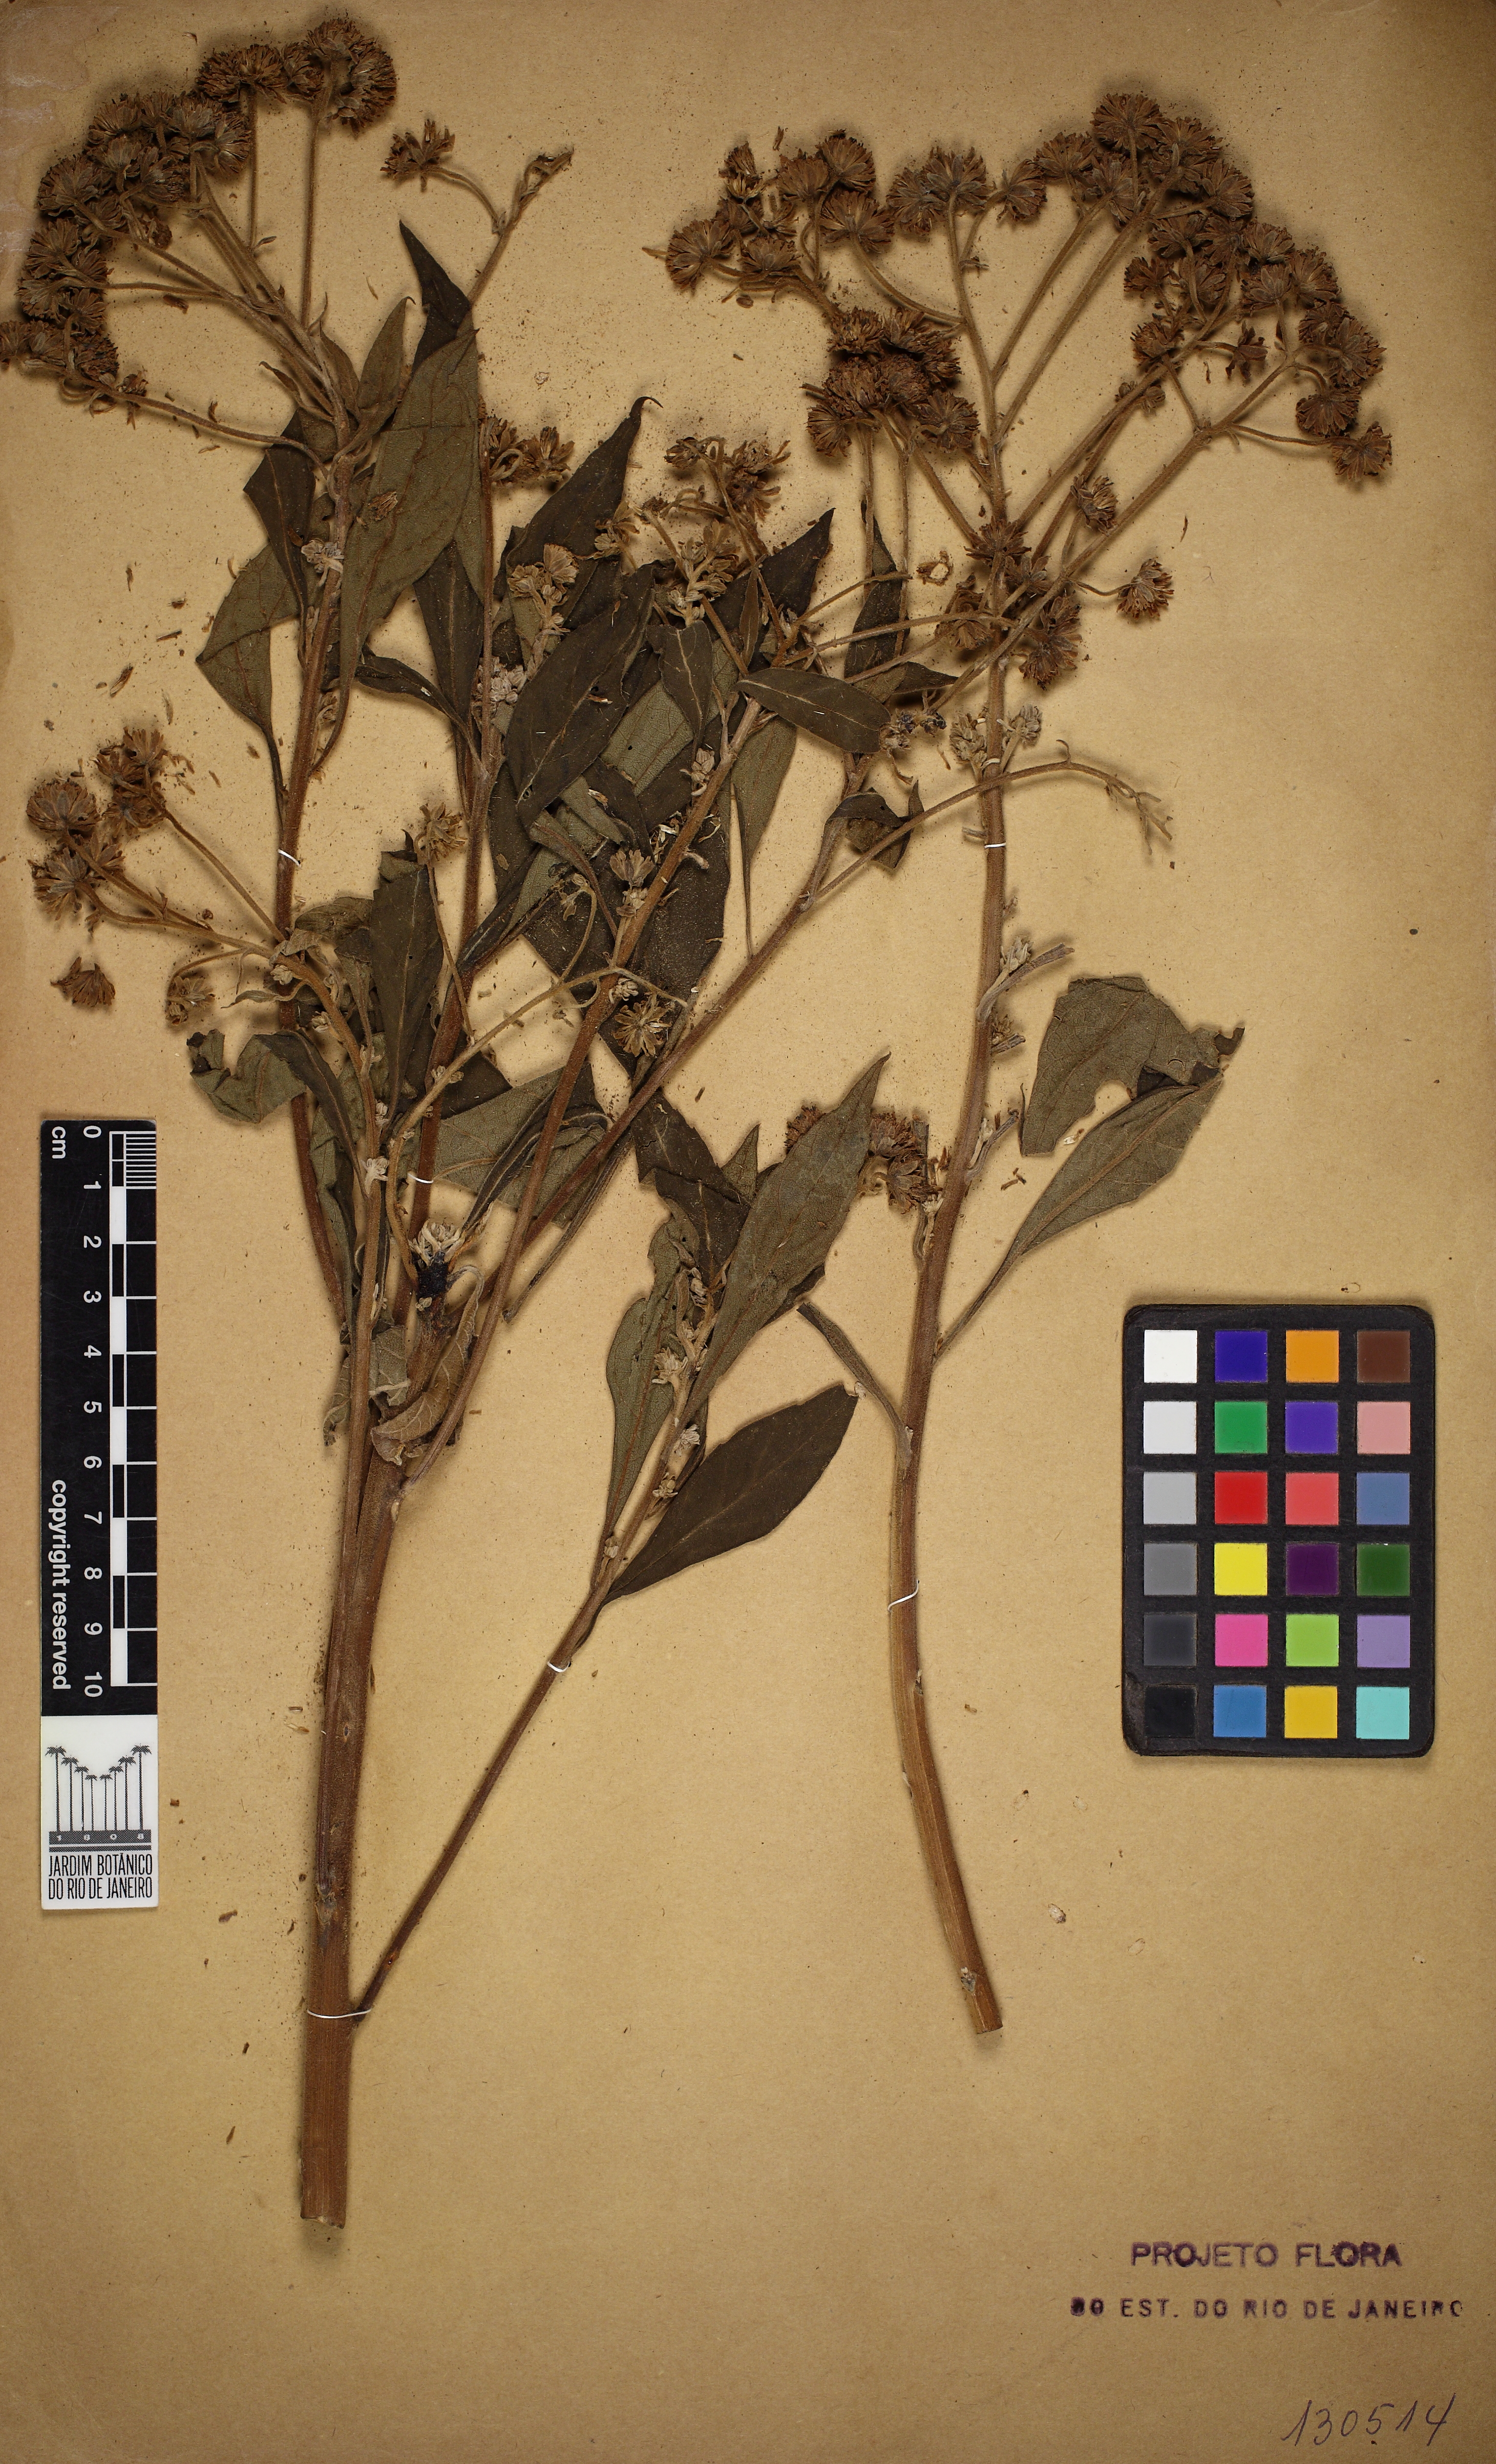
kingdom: Plantae
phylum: Tracheophyta
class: Magnoliopsida
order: Asterales
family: Asteraceae
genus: Verbesina
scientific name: Verbesina glabrata
